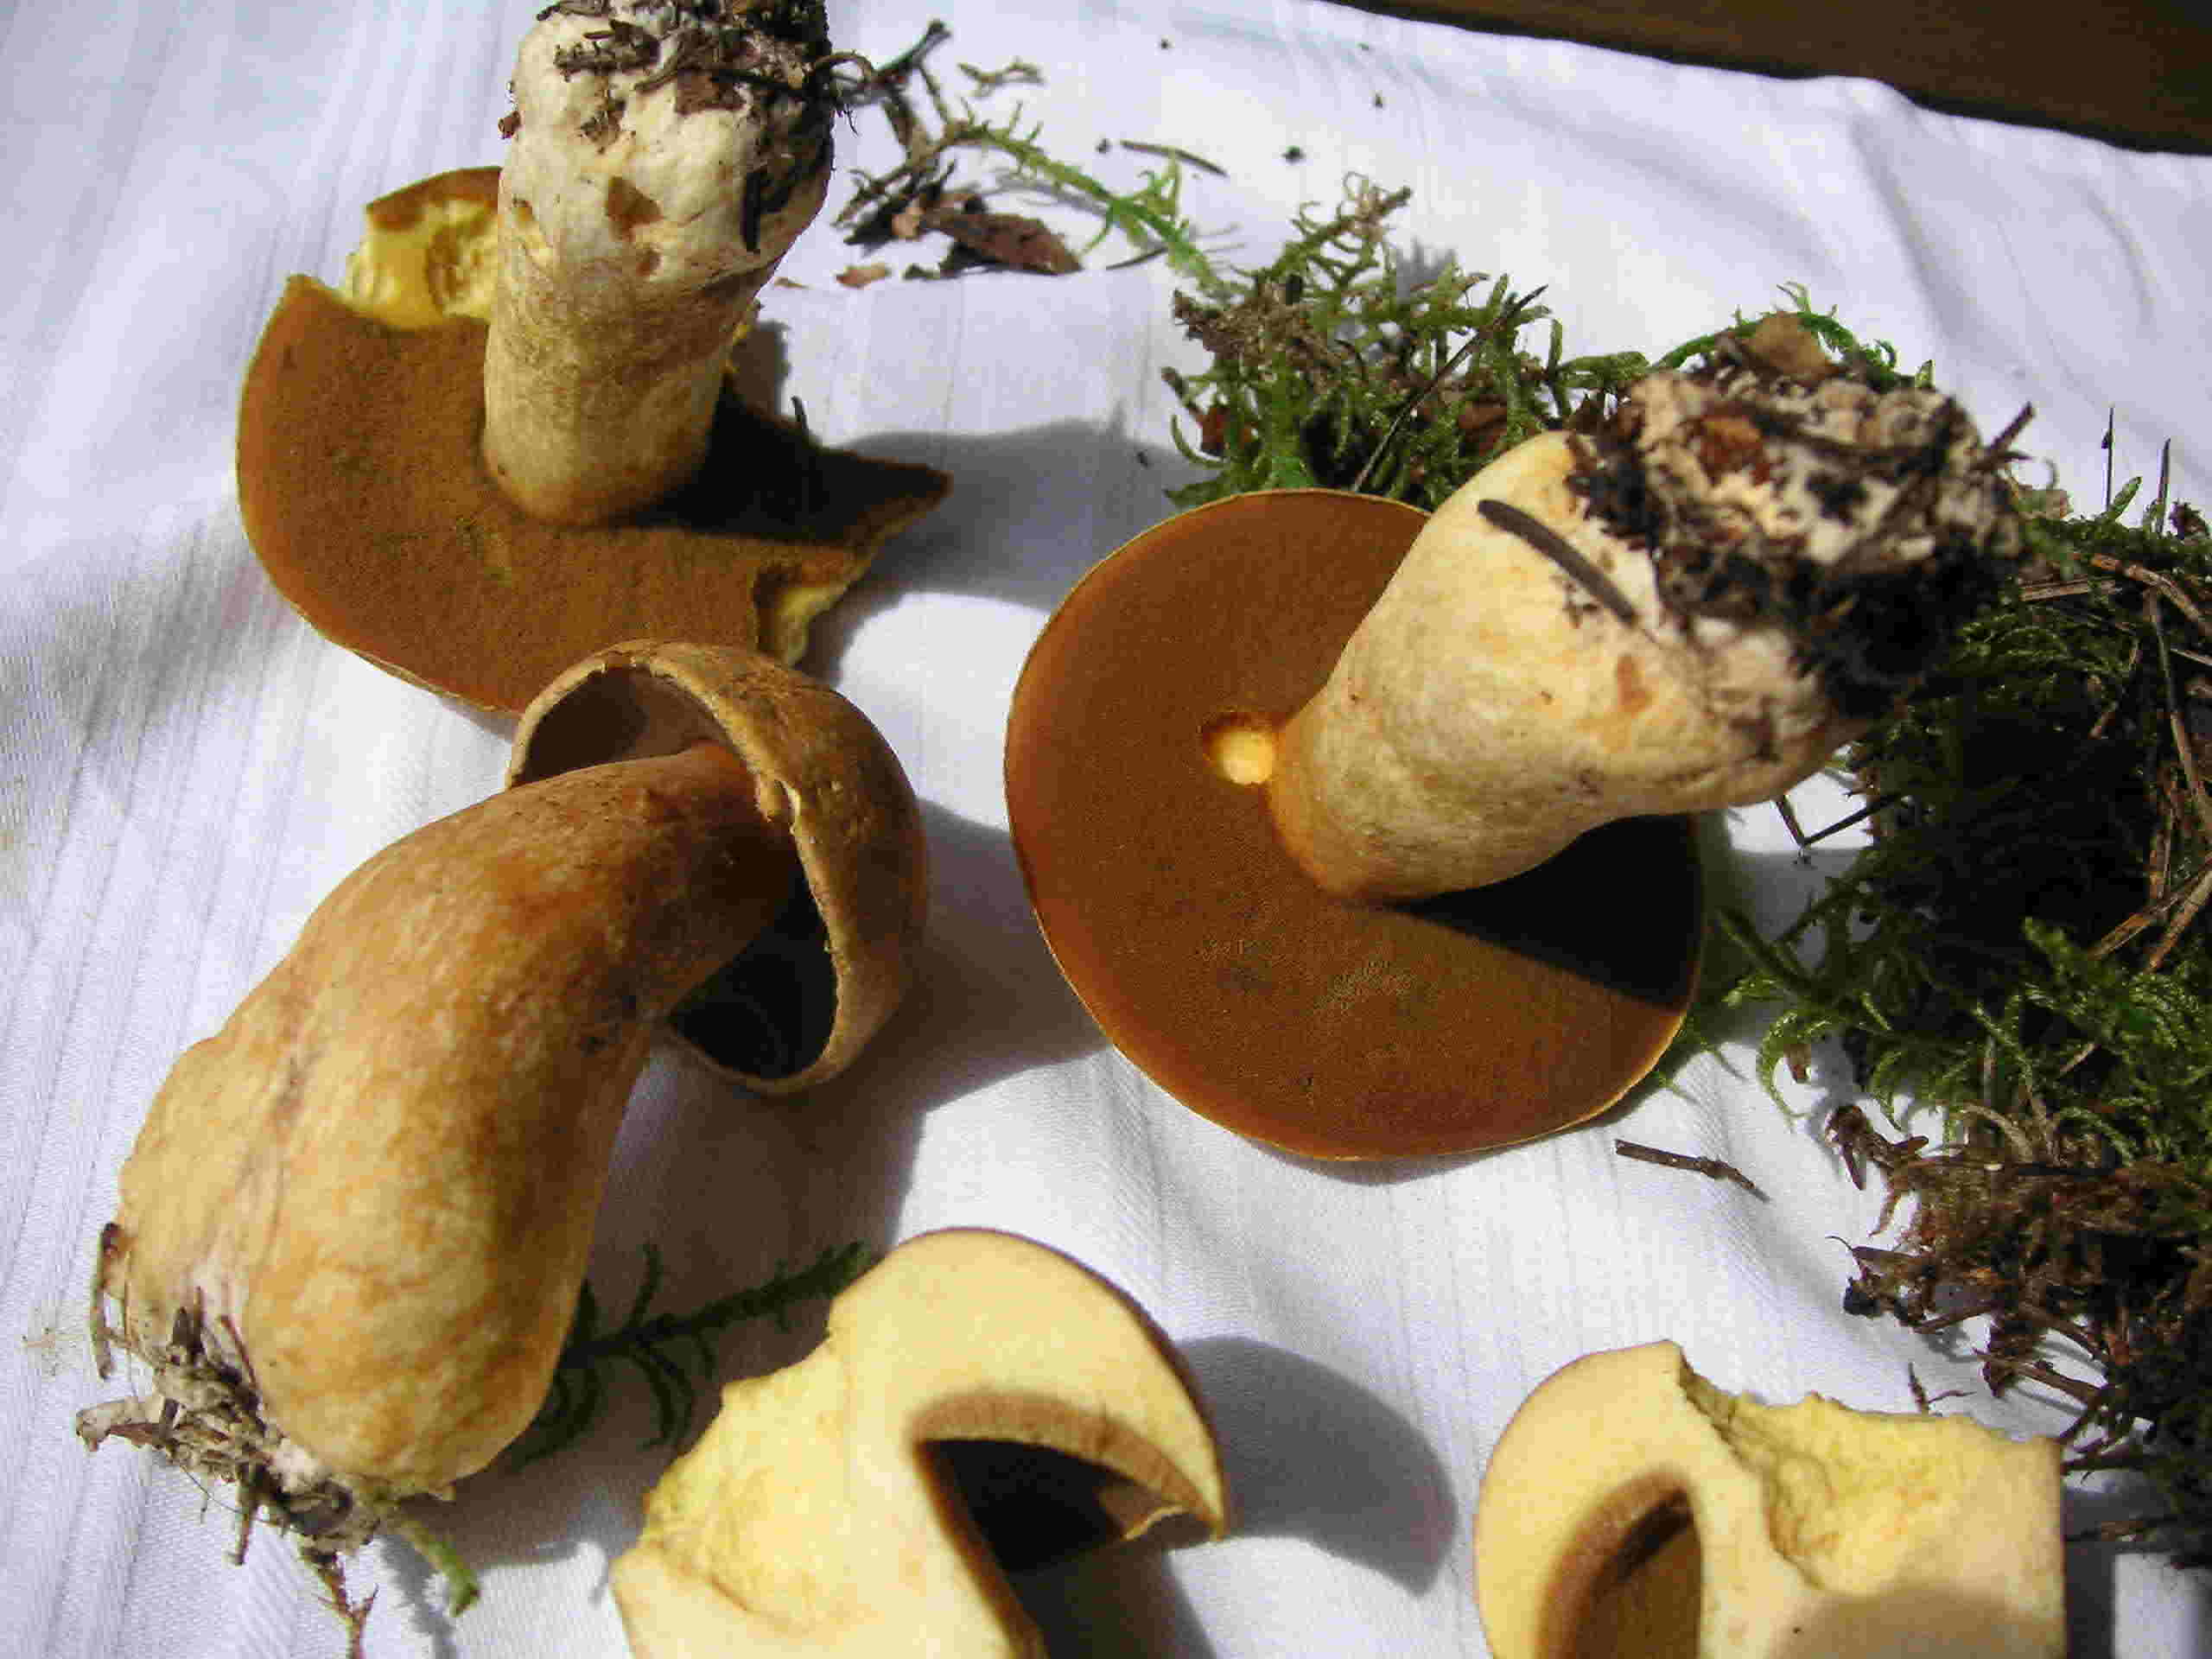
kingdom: Fungi
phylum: Basidiomycota
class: Agaricomycetes
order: Boletales
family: Suillaceae
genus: Suillus
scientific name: Suillus variegatus
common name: broget slimrørhat
